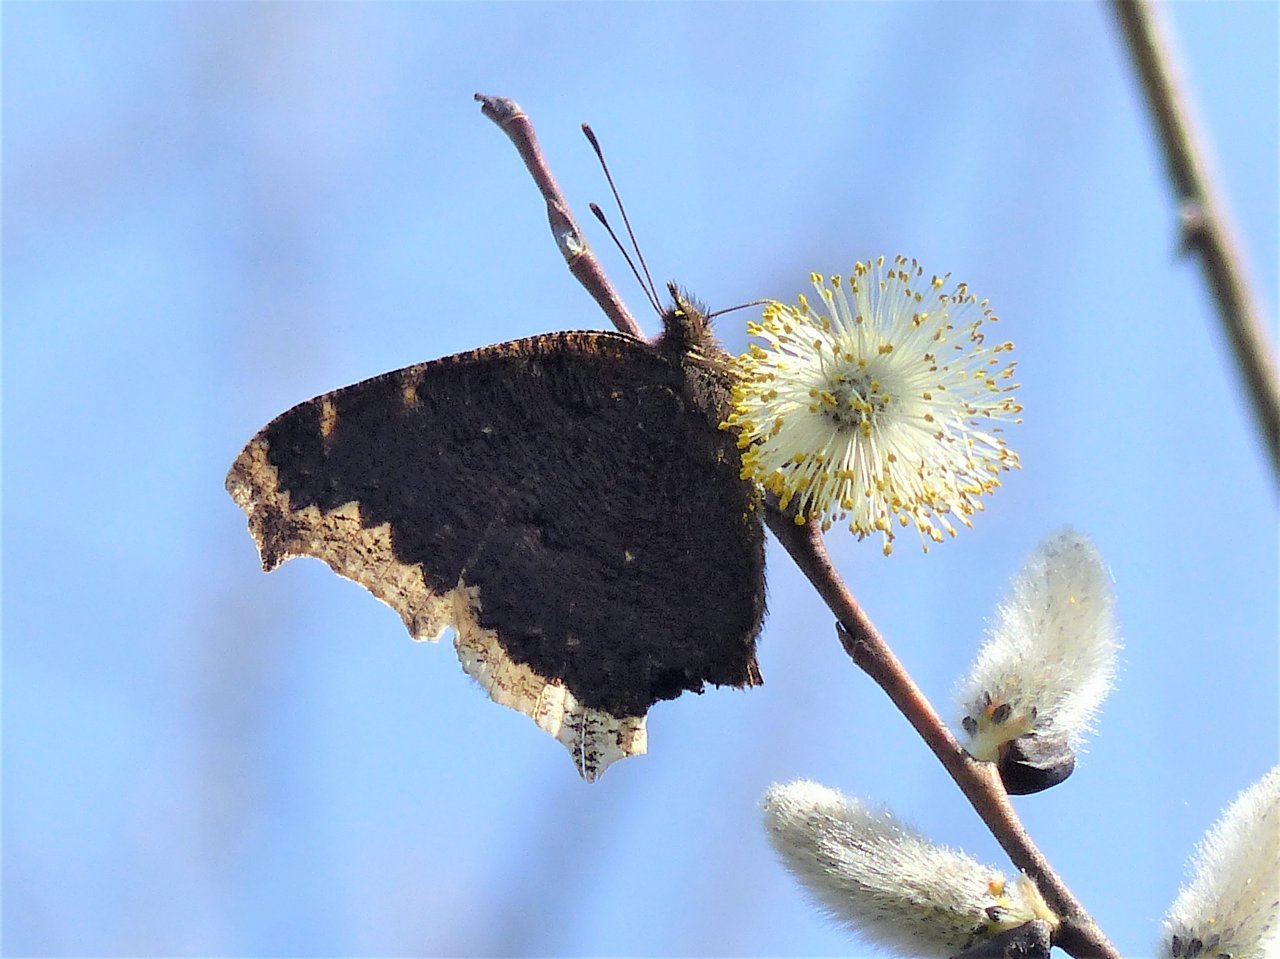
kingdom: Animalia
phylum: Arthropoda
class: Insecta
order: Lepidoptera
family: Nymphalidae
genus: Nymphalis
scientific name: Nymphalis antiopa
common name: Mourning Cloak
